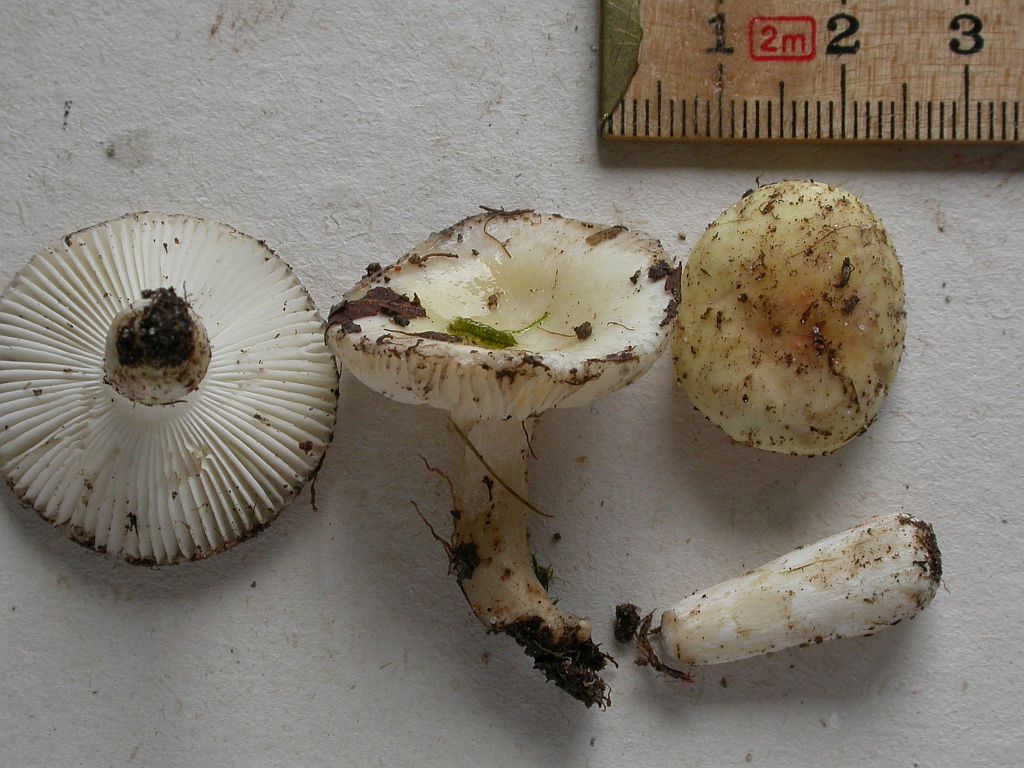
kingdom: Fungi
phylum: Basidiomycota
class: Agaricomycetes
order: Russulales
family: Russulaceae
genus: Russula
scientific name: Russula fragilis
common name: Fragile brittlegill
